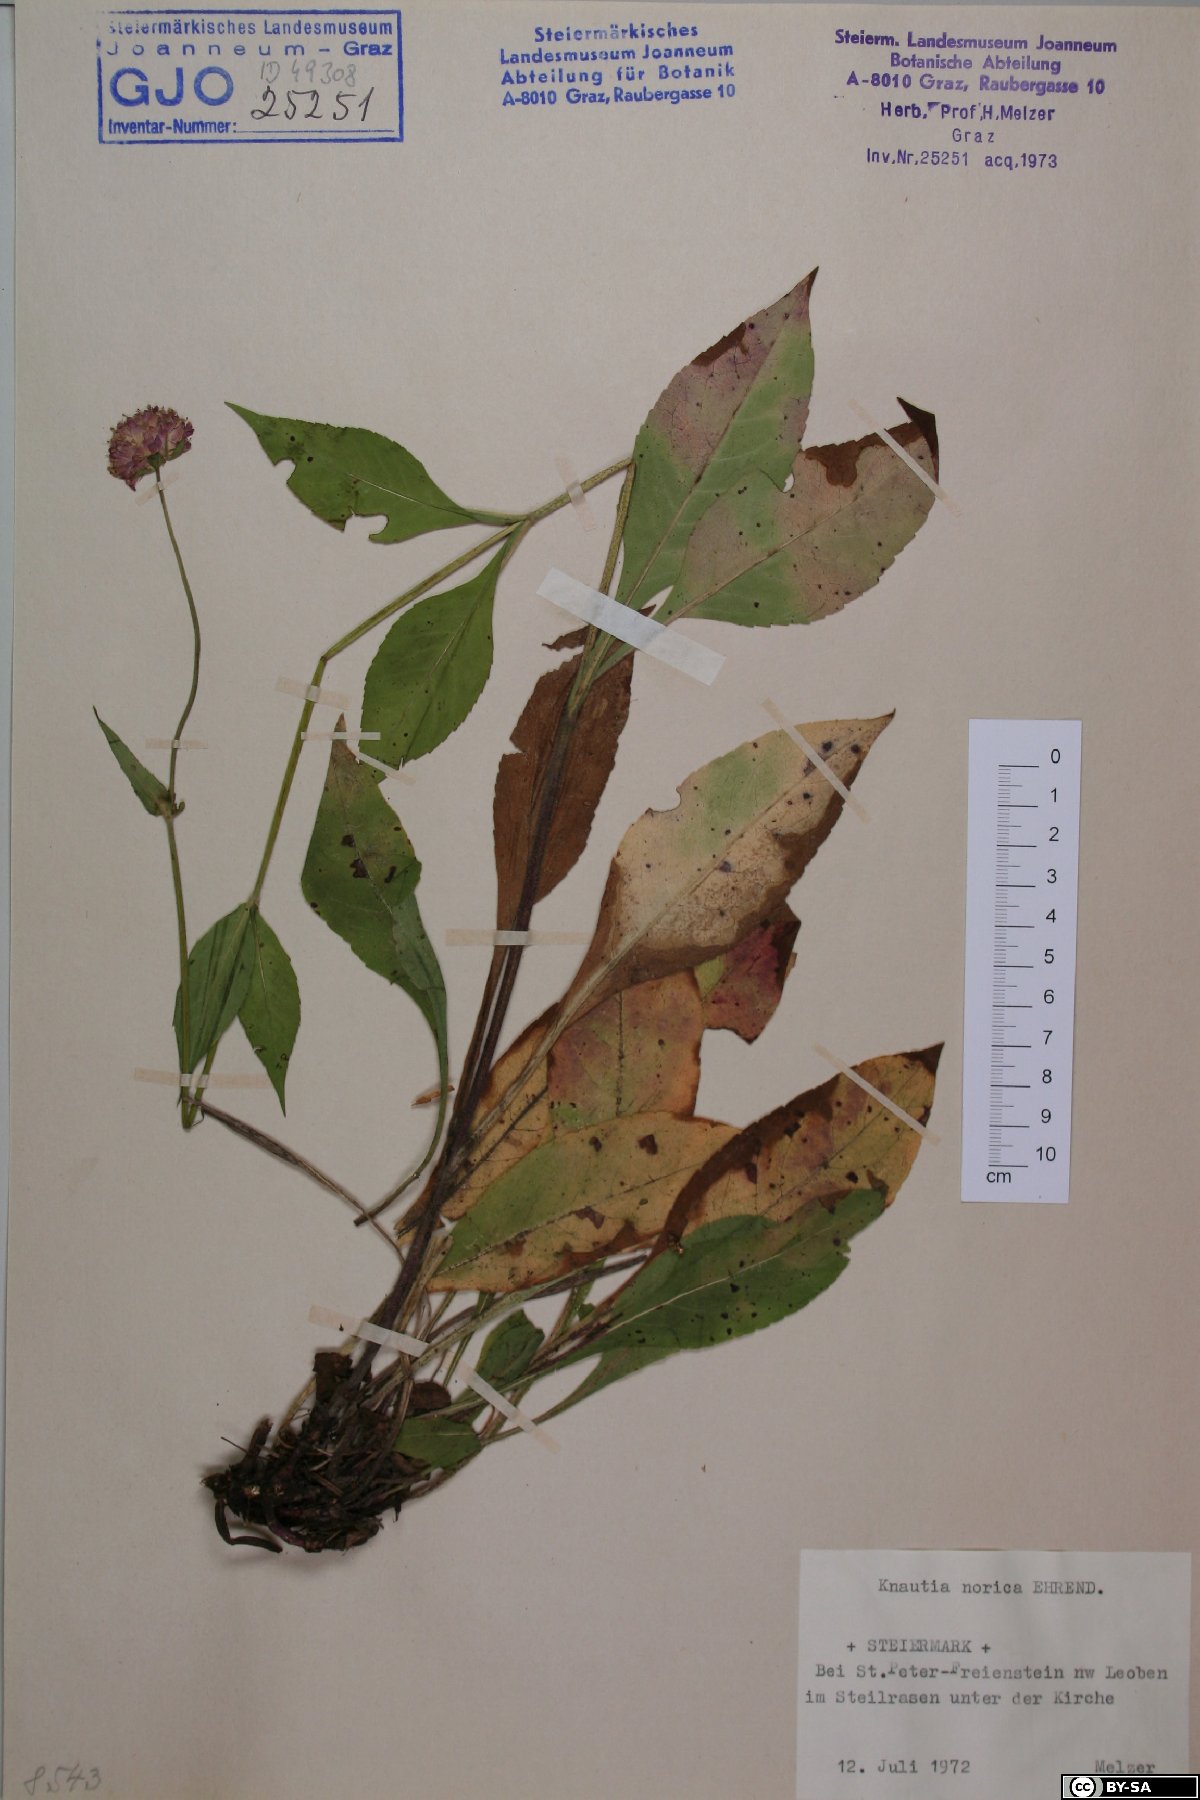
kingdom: Plantae
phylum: Tracheophyta
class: Magnoliopsida
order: Dipsacales
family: Caprifoliaceae
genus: Knautia
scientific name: Knautia norica
